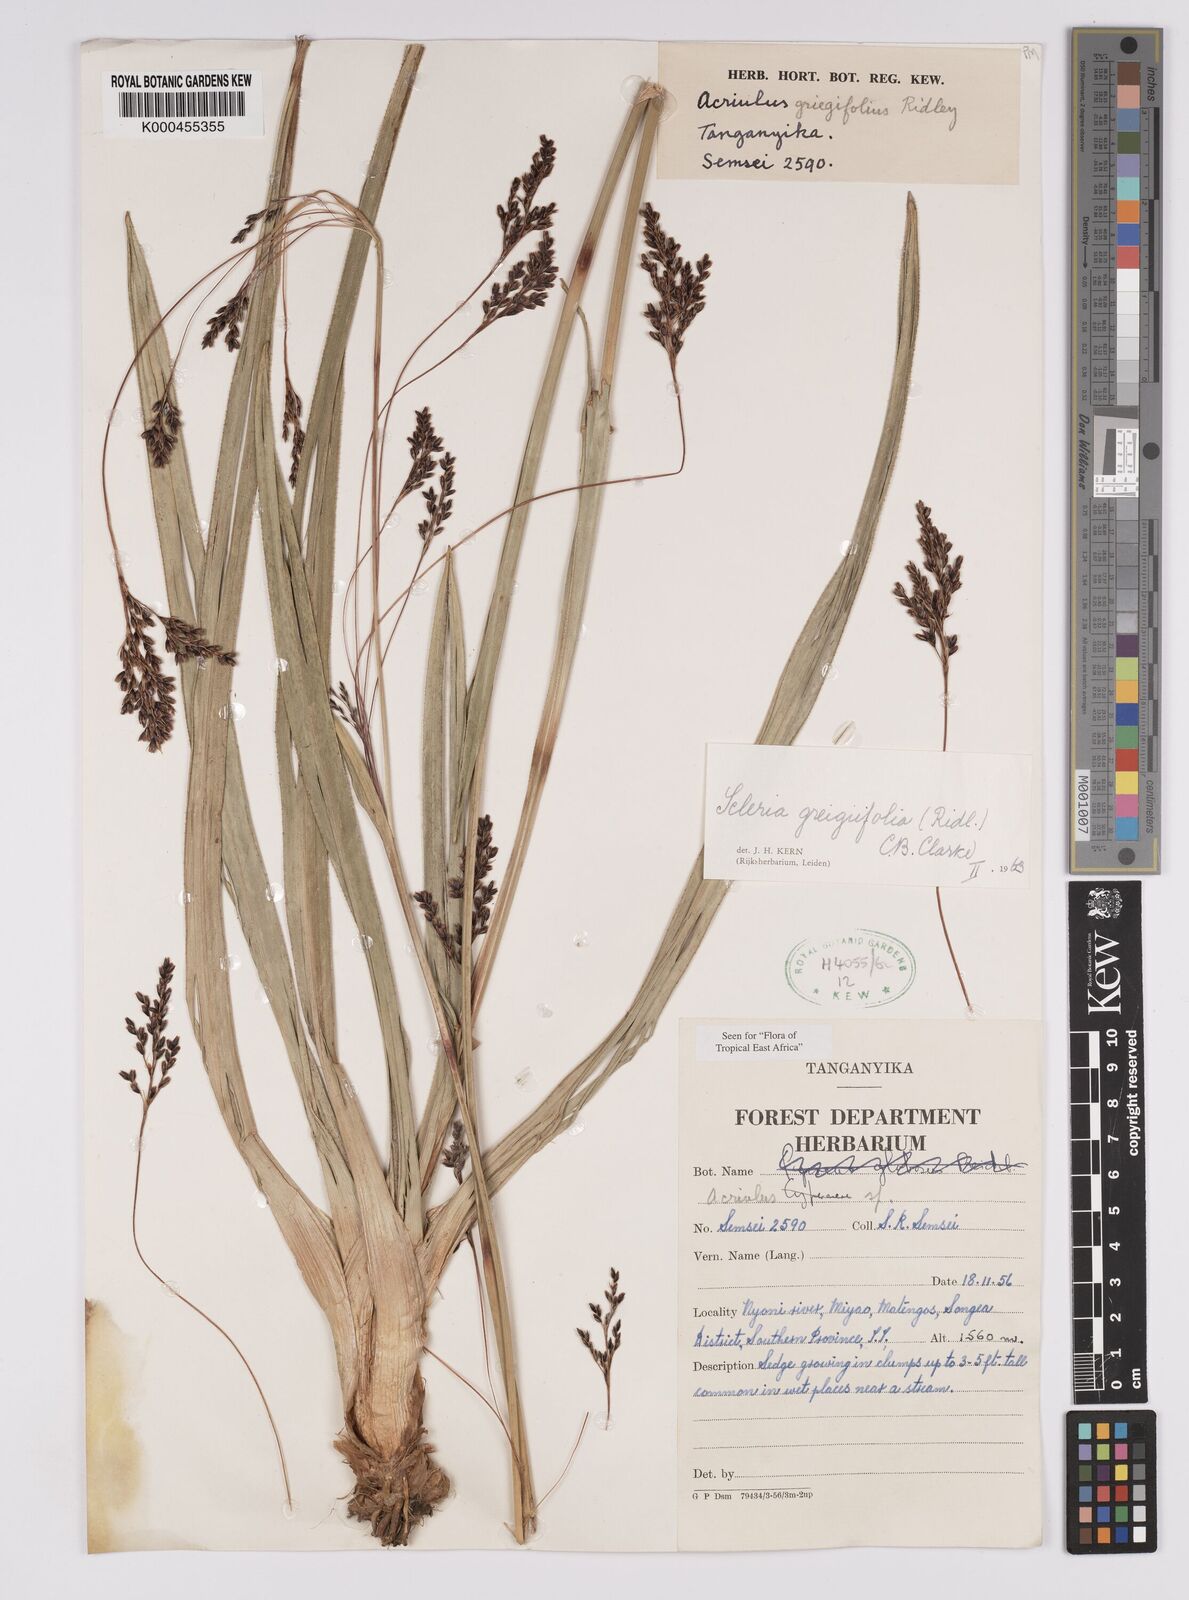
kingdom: Plantae
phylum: Tracheophyta
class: Liliopsida
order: Poales
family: Cyperaceae
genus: Scleria
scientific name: Scleria greigiifolia
